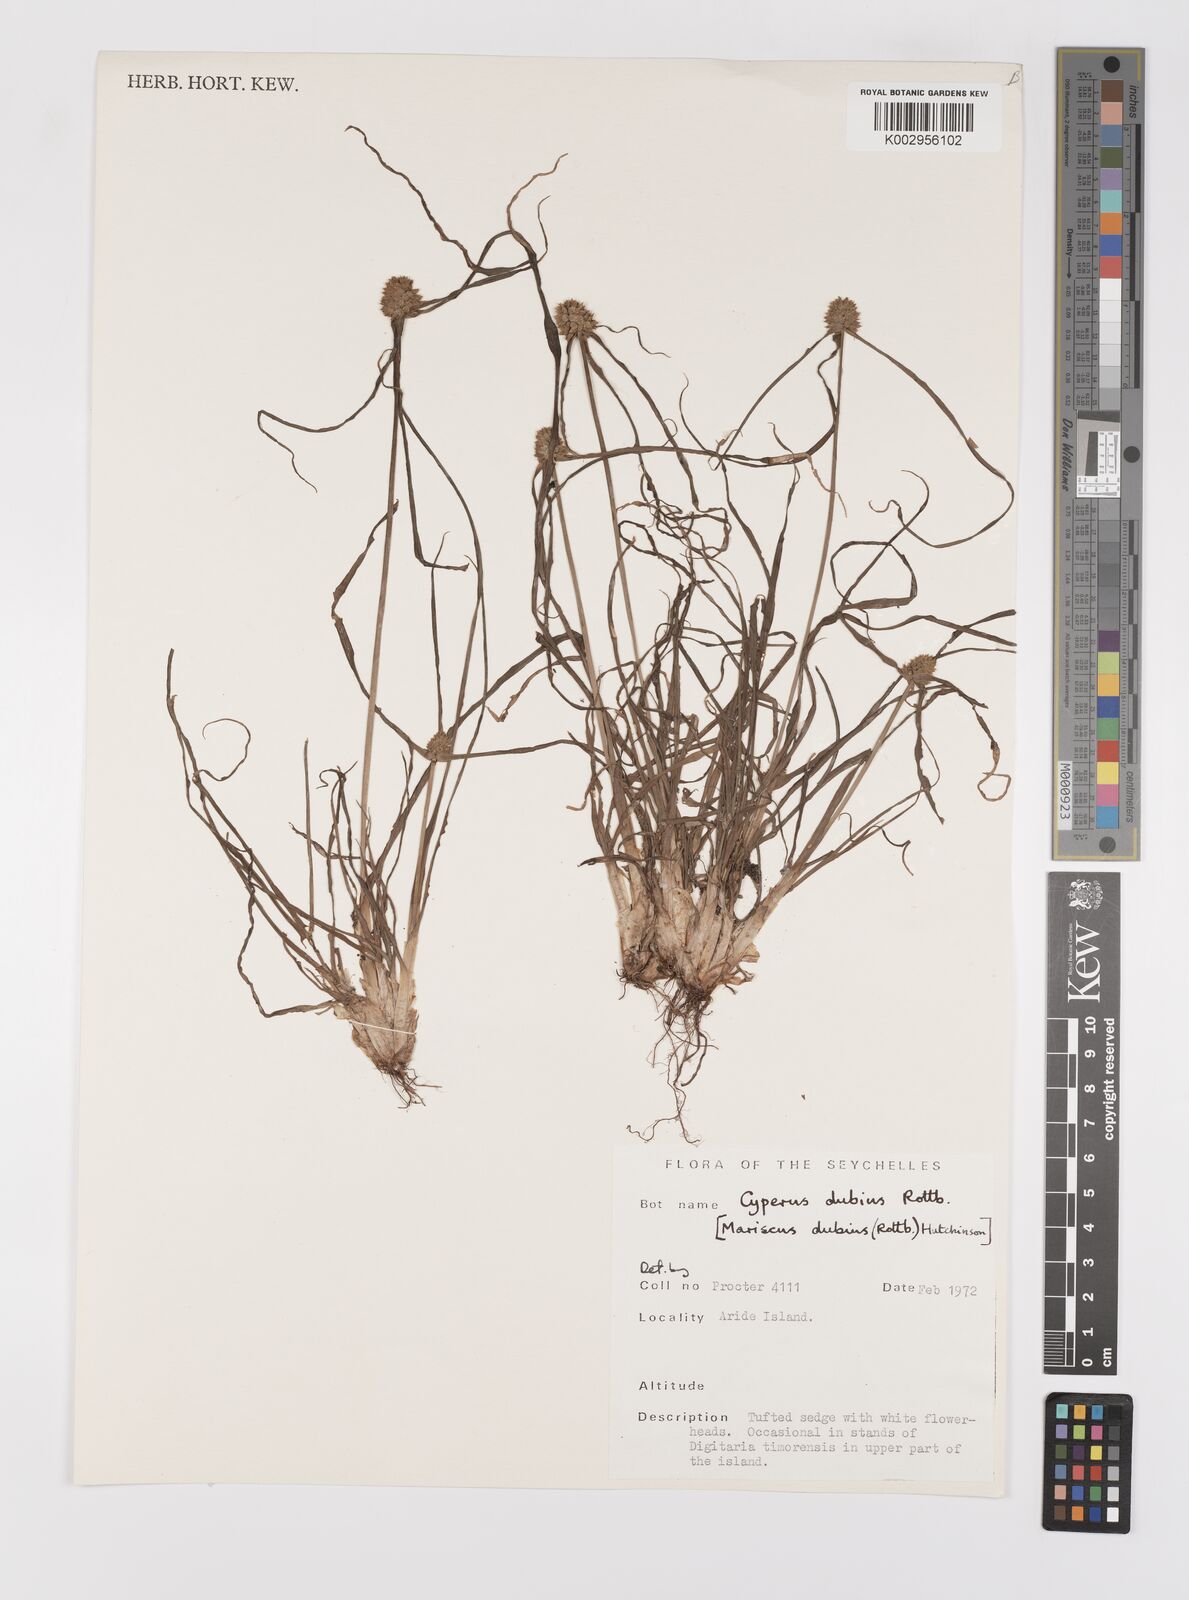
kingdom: Plantae
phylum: Tracheophyta
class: Liliopsida
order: Poales
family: Cyperaceae
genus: Cyperus
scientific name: Cyperus dubius
